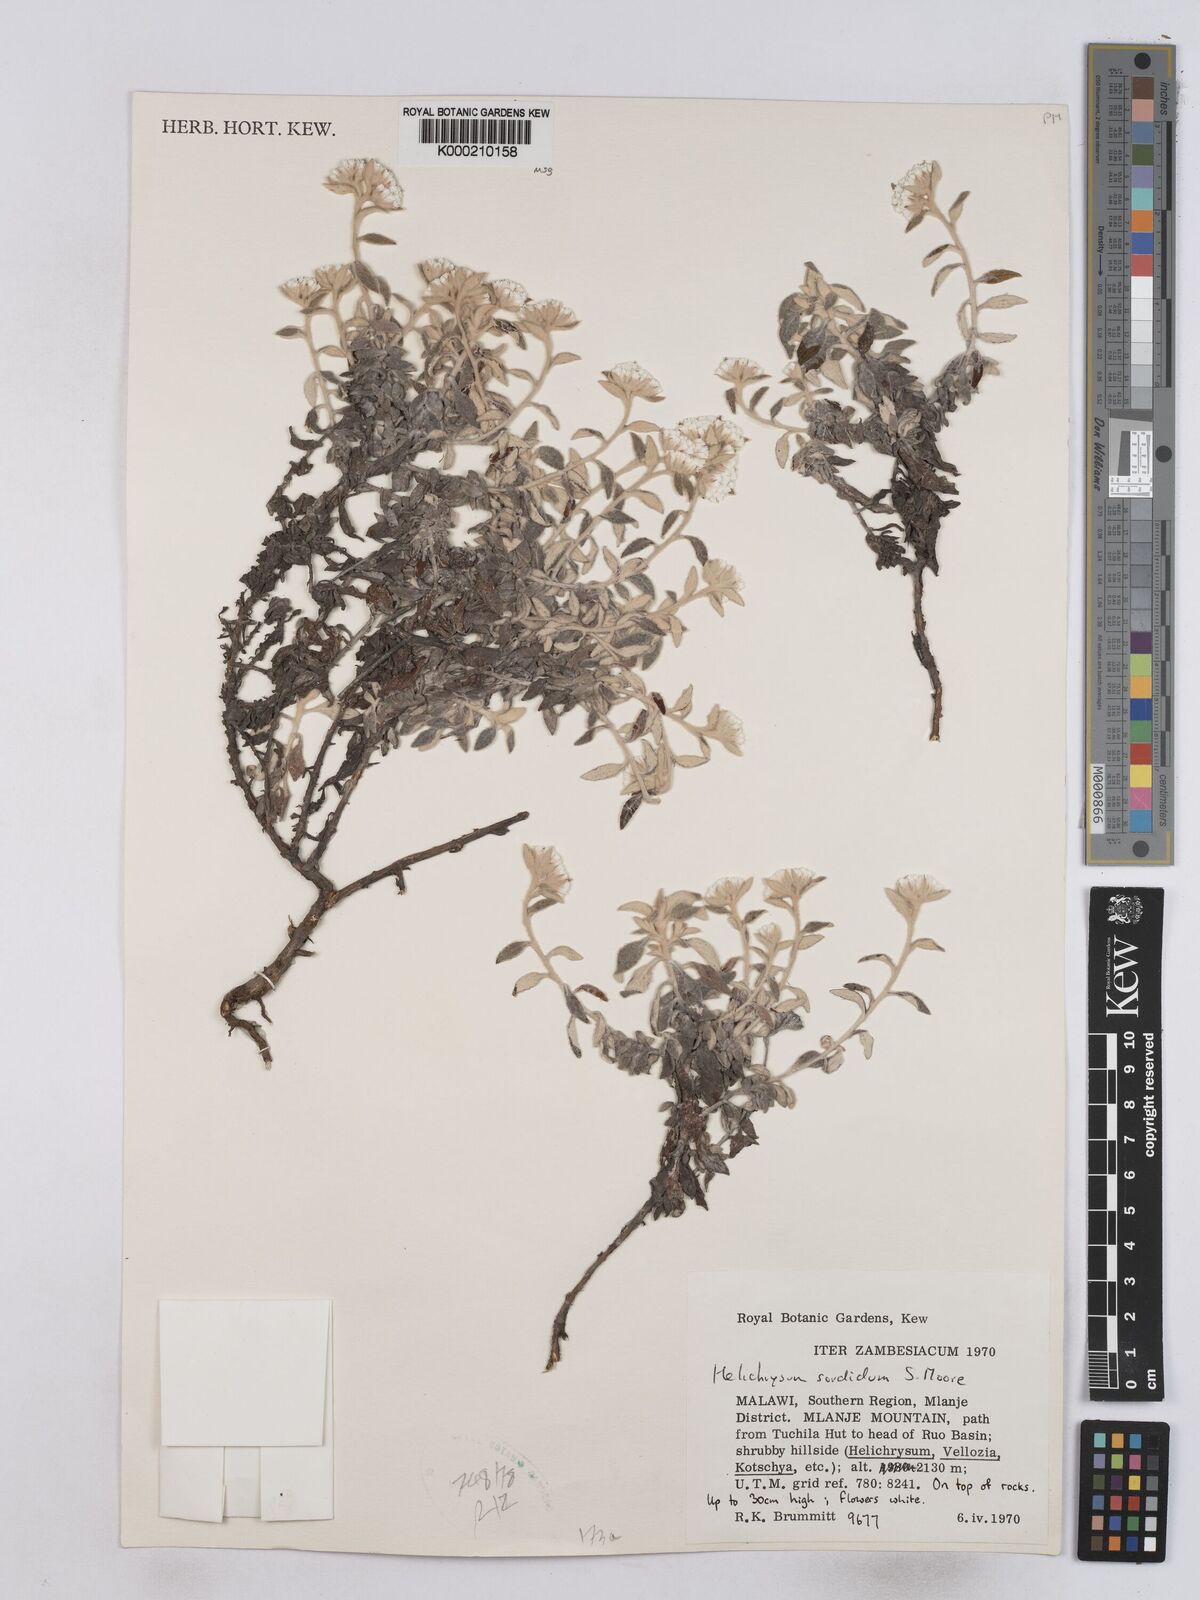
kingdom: Plantae
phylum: Tracheophyta
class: Magnoliopsida
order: Asterales
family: Asteraceae
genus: Helichrysum
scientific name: Helichrysum
